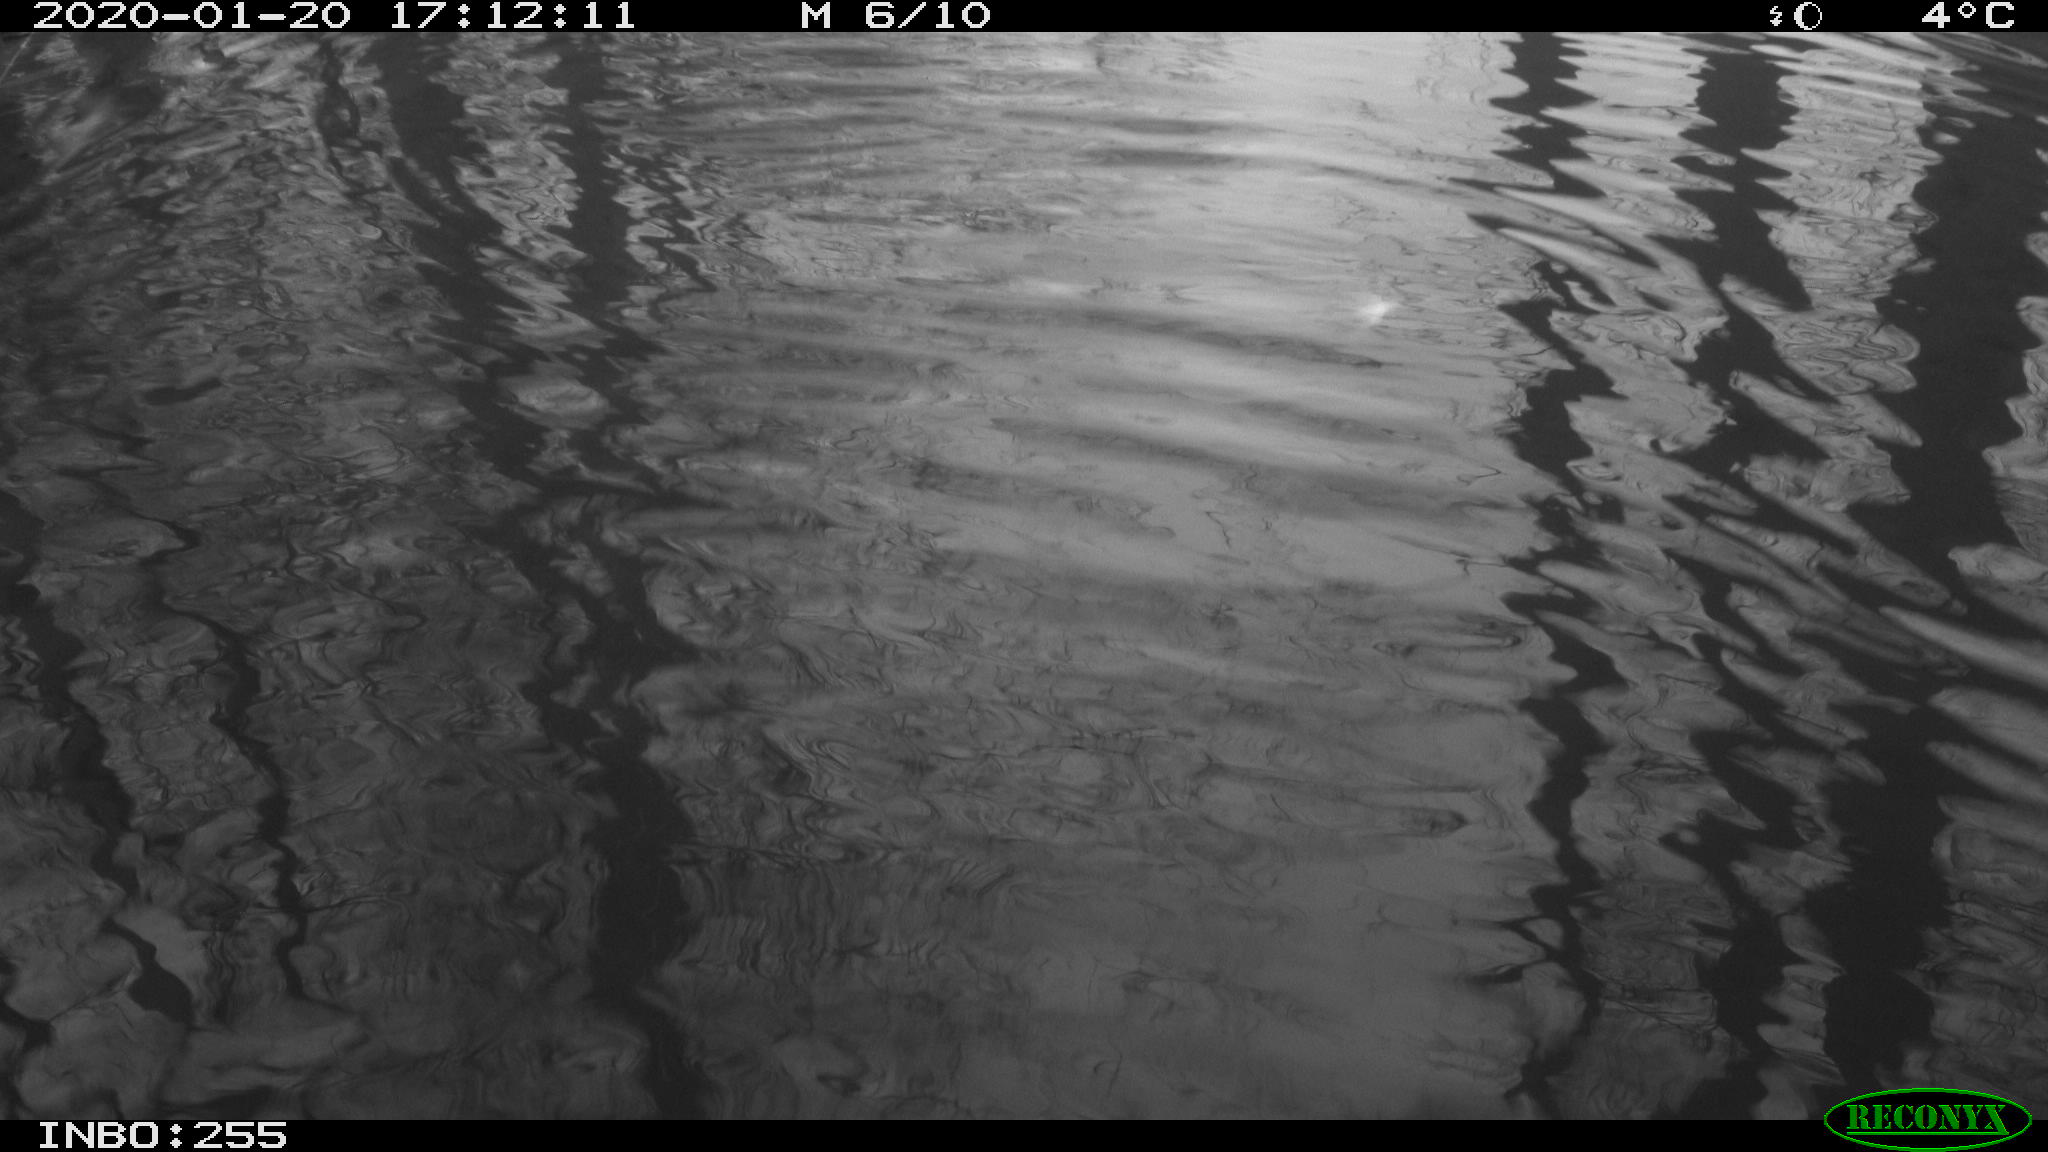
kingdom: Animalia
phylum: Chordata
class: Aves
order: Gruiformes
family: Rallidae
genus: Gallinula
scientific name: Gallinula chloropus
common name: Common moorhen
